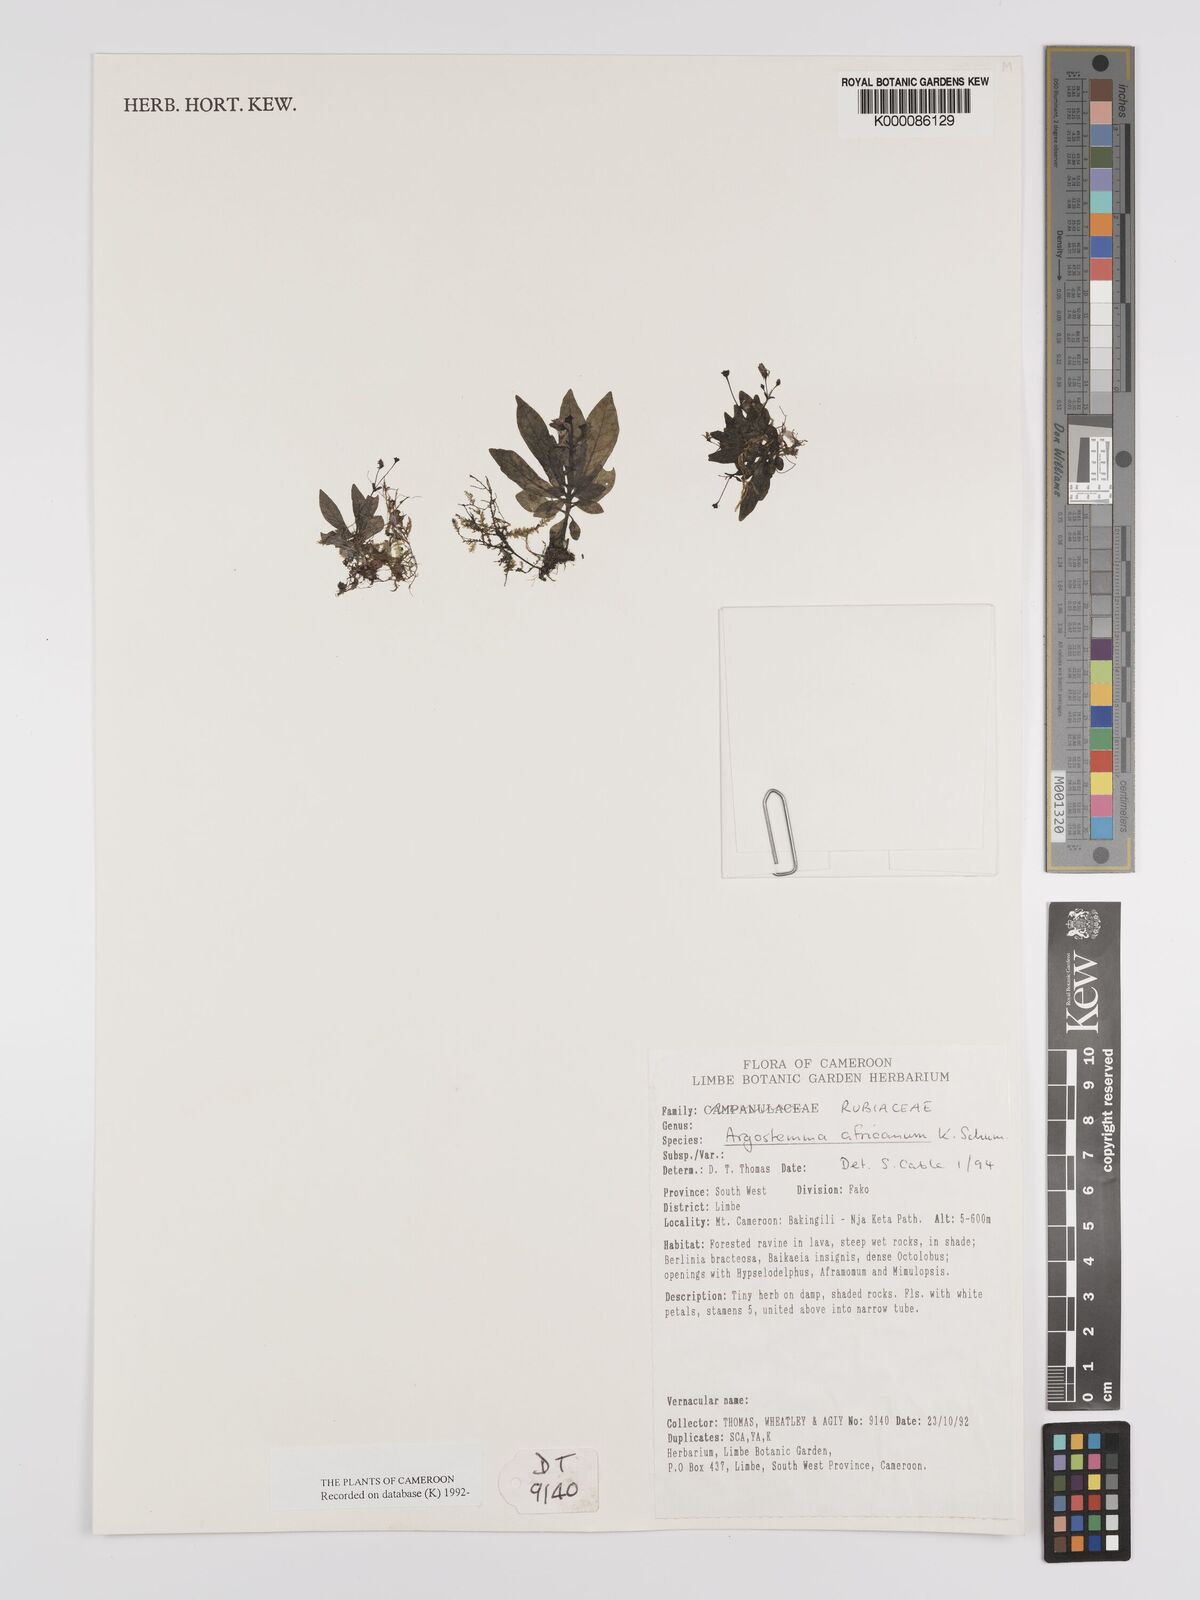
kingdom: Plantae
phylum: Tracheophyta
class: Magnoliopsida
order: Gentianales
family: Rubiaceae
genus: Argostemma
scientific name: Argostemma africanum
